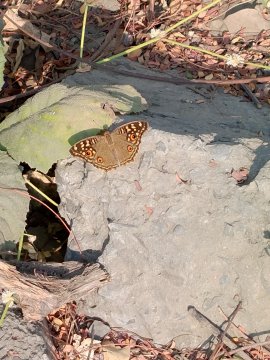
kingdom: Animalia
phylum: Arthropoda
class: Insecta
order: Lepidoptera
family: Nymphalidae
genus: Junonia
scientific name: Junonia lemonias
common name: Lemon Pansy
